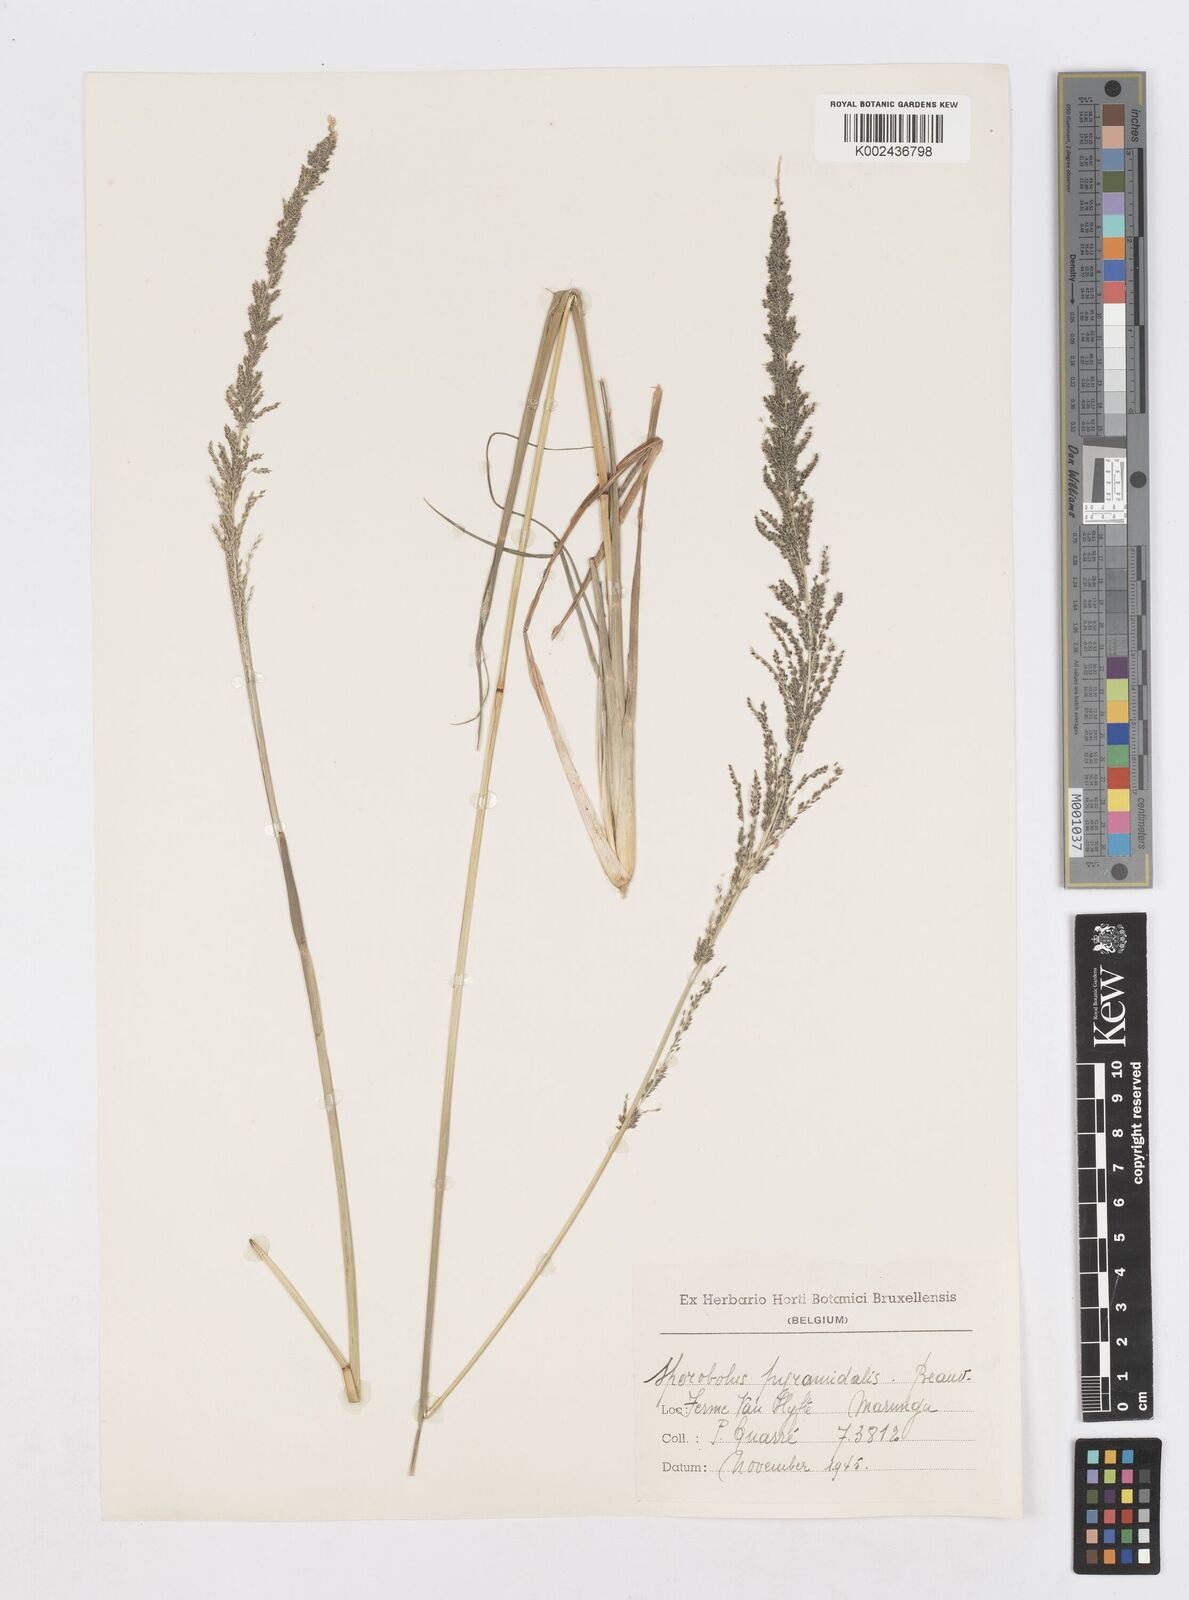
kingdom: Plantae
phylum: Tracheophyta
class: Liliopsida
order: Poales
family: Poaceae
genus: Sporobolus
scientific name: Sporobolus pyramidalis
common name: West indian dropseed
